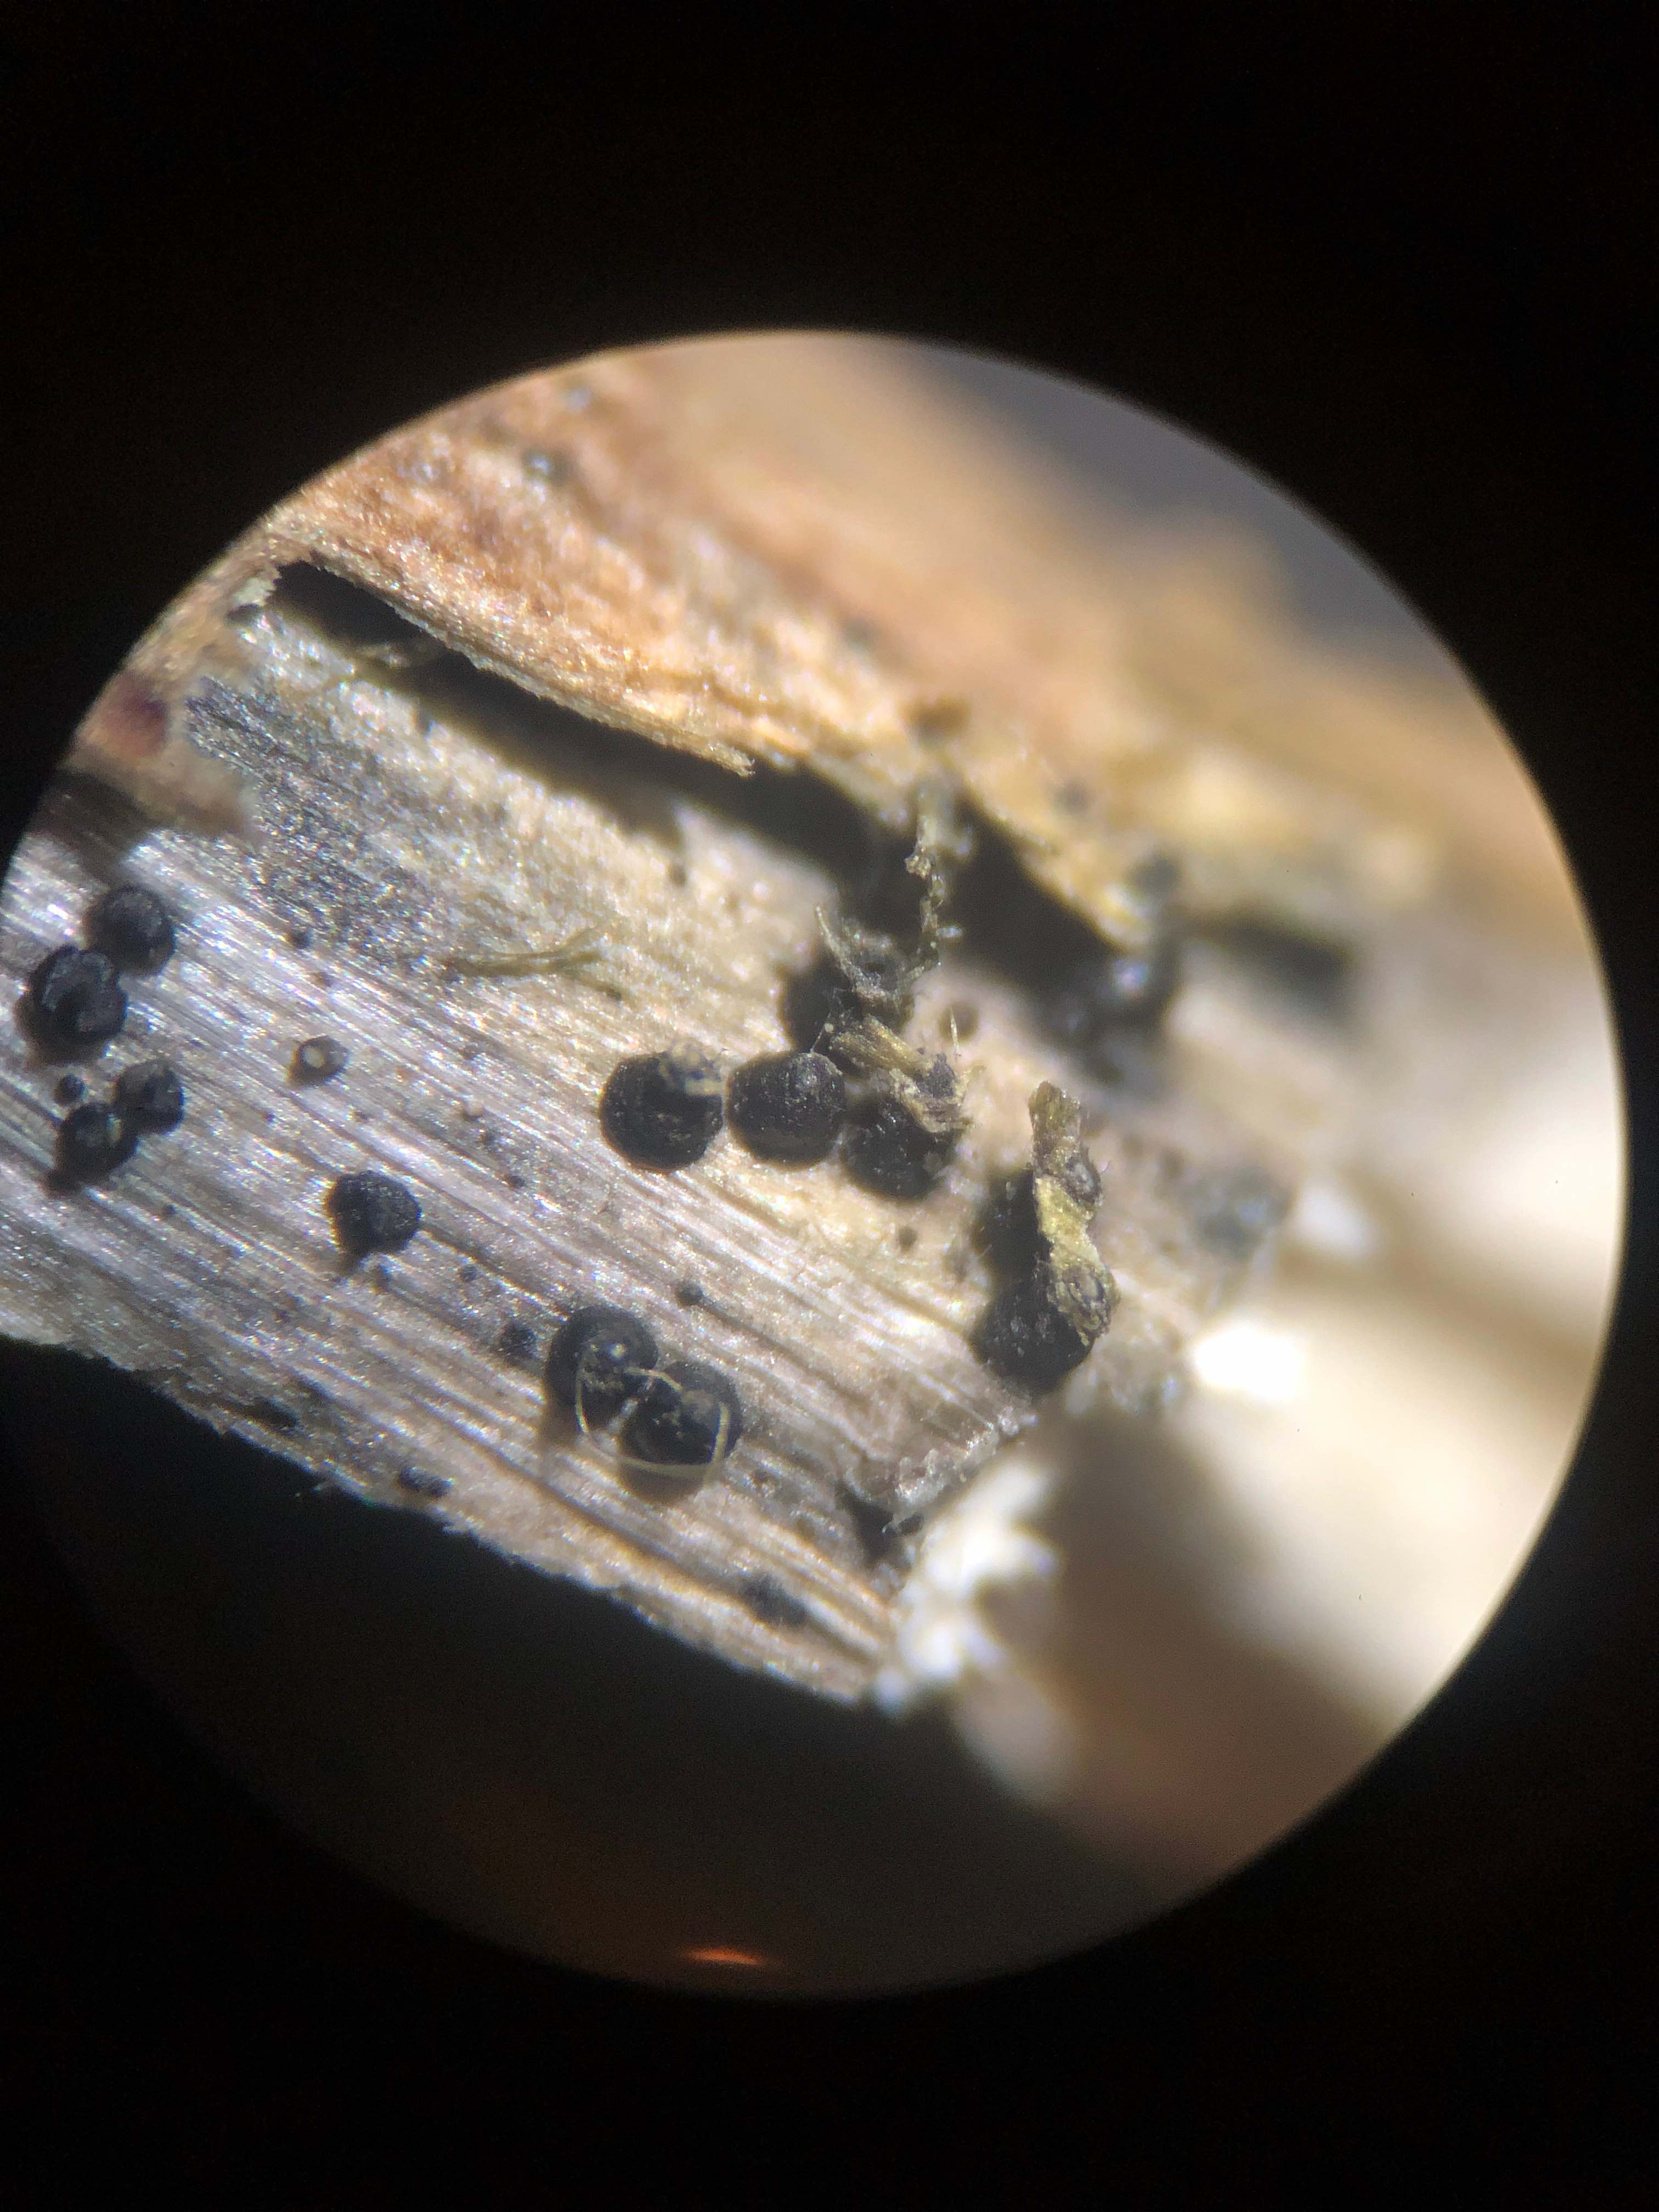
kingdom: Fungi
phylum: Ascomycota
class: Dothideomycetes
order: Pleosporales
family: Leptosphaeriaceae
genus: Leptosphaeria
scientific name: Leptosphaeria acuta
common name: spids kulkegle
